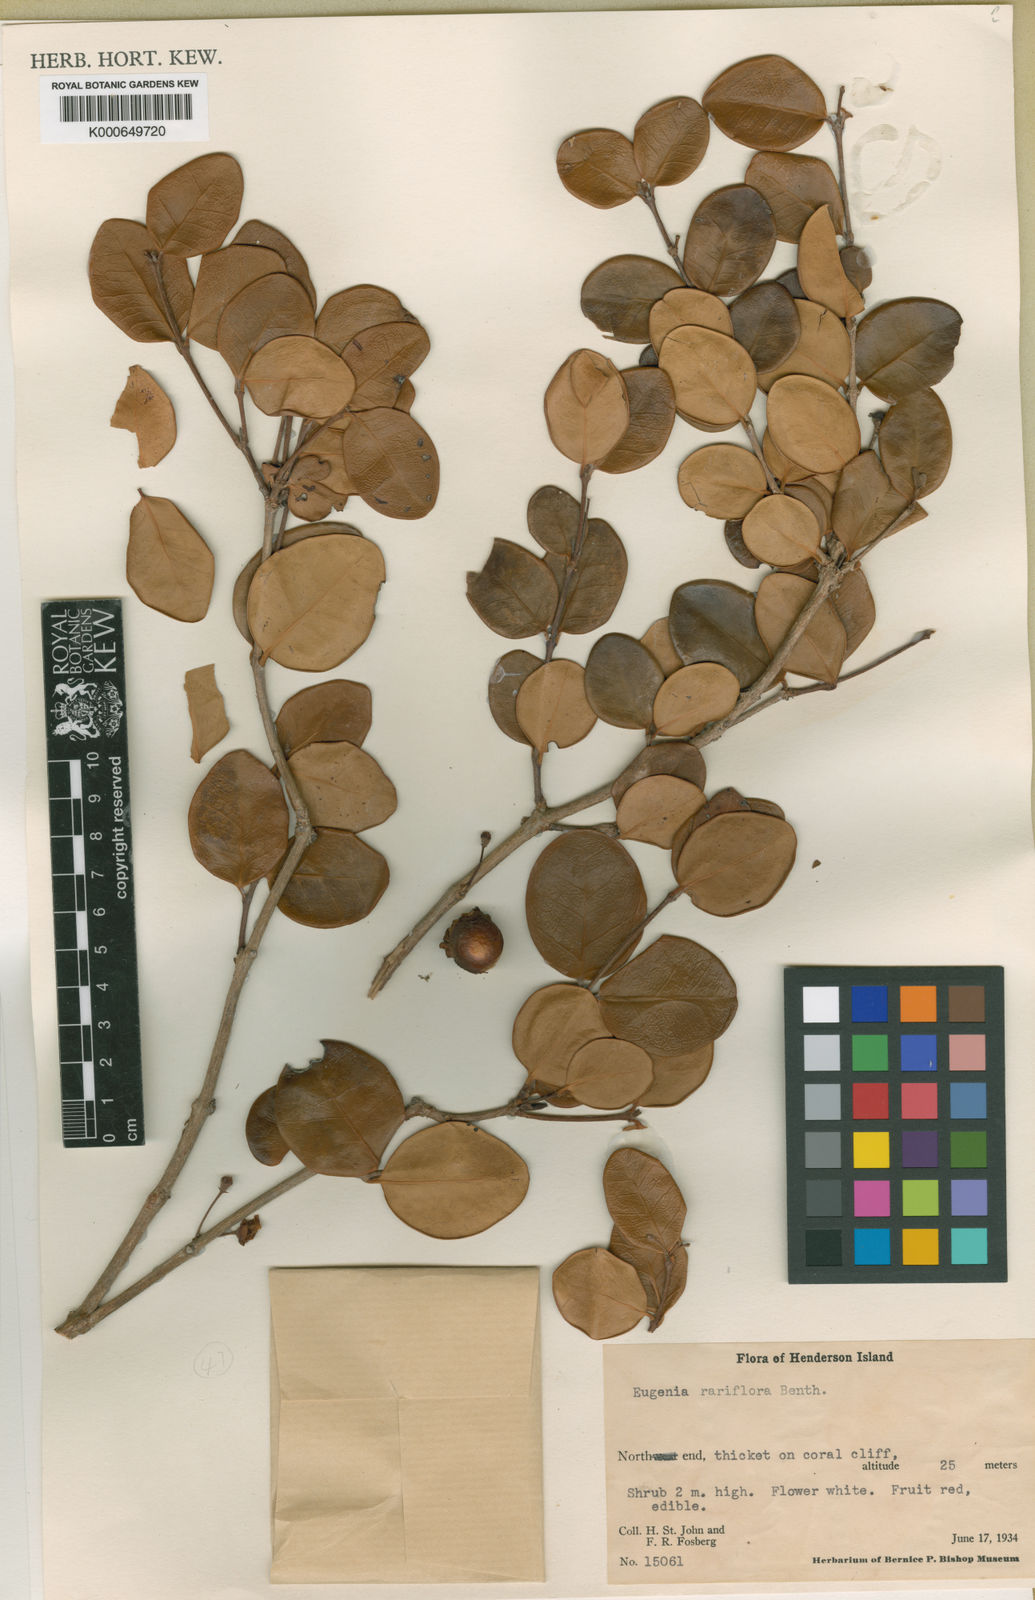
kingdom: Plantae
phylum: Tracheophyta
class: Magnoliopsida
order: Myrtales
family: Myrtaceae
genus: Eugenia
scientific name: Eugenia uniflora
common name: Surinam cherry
